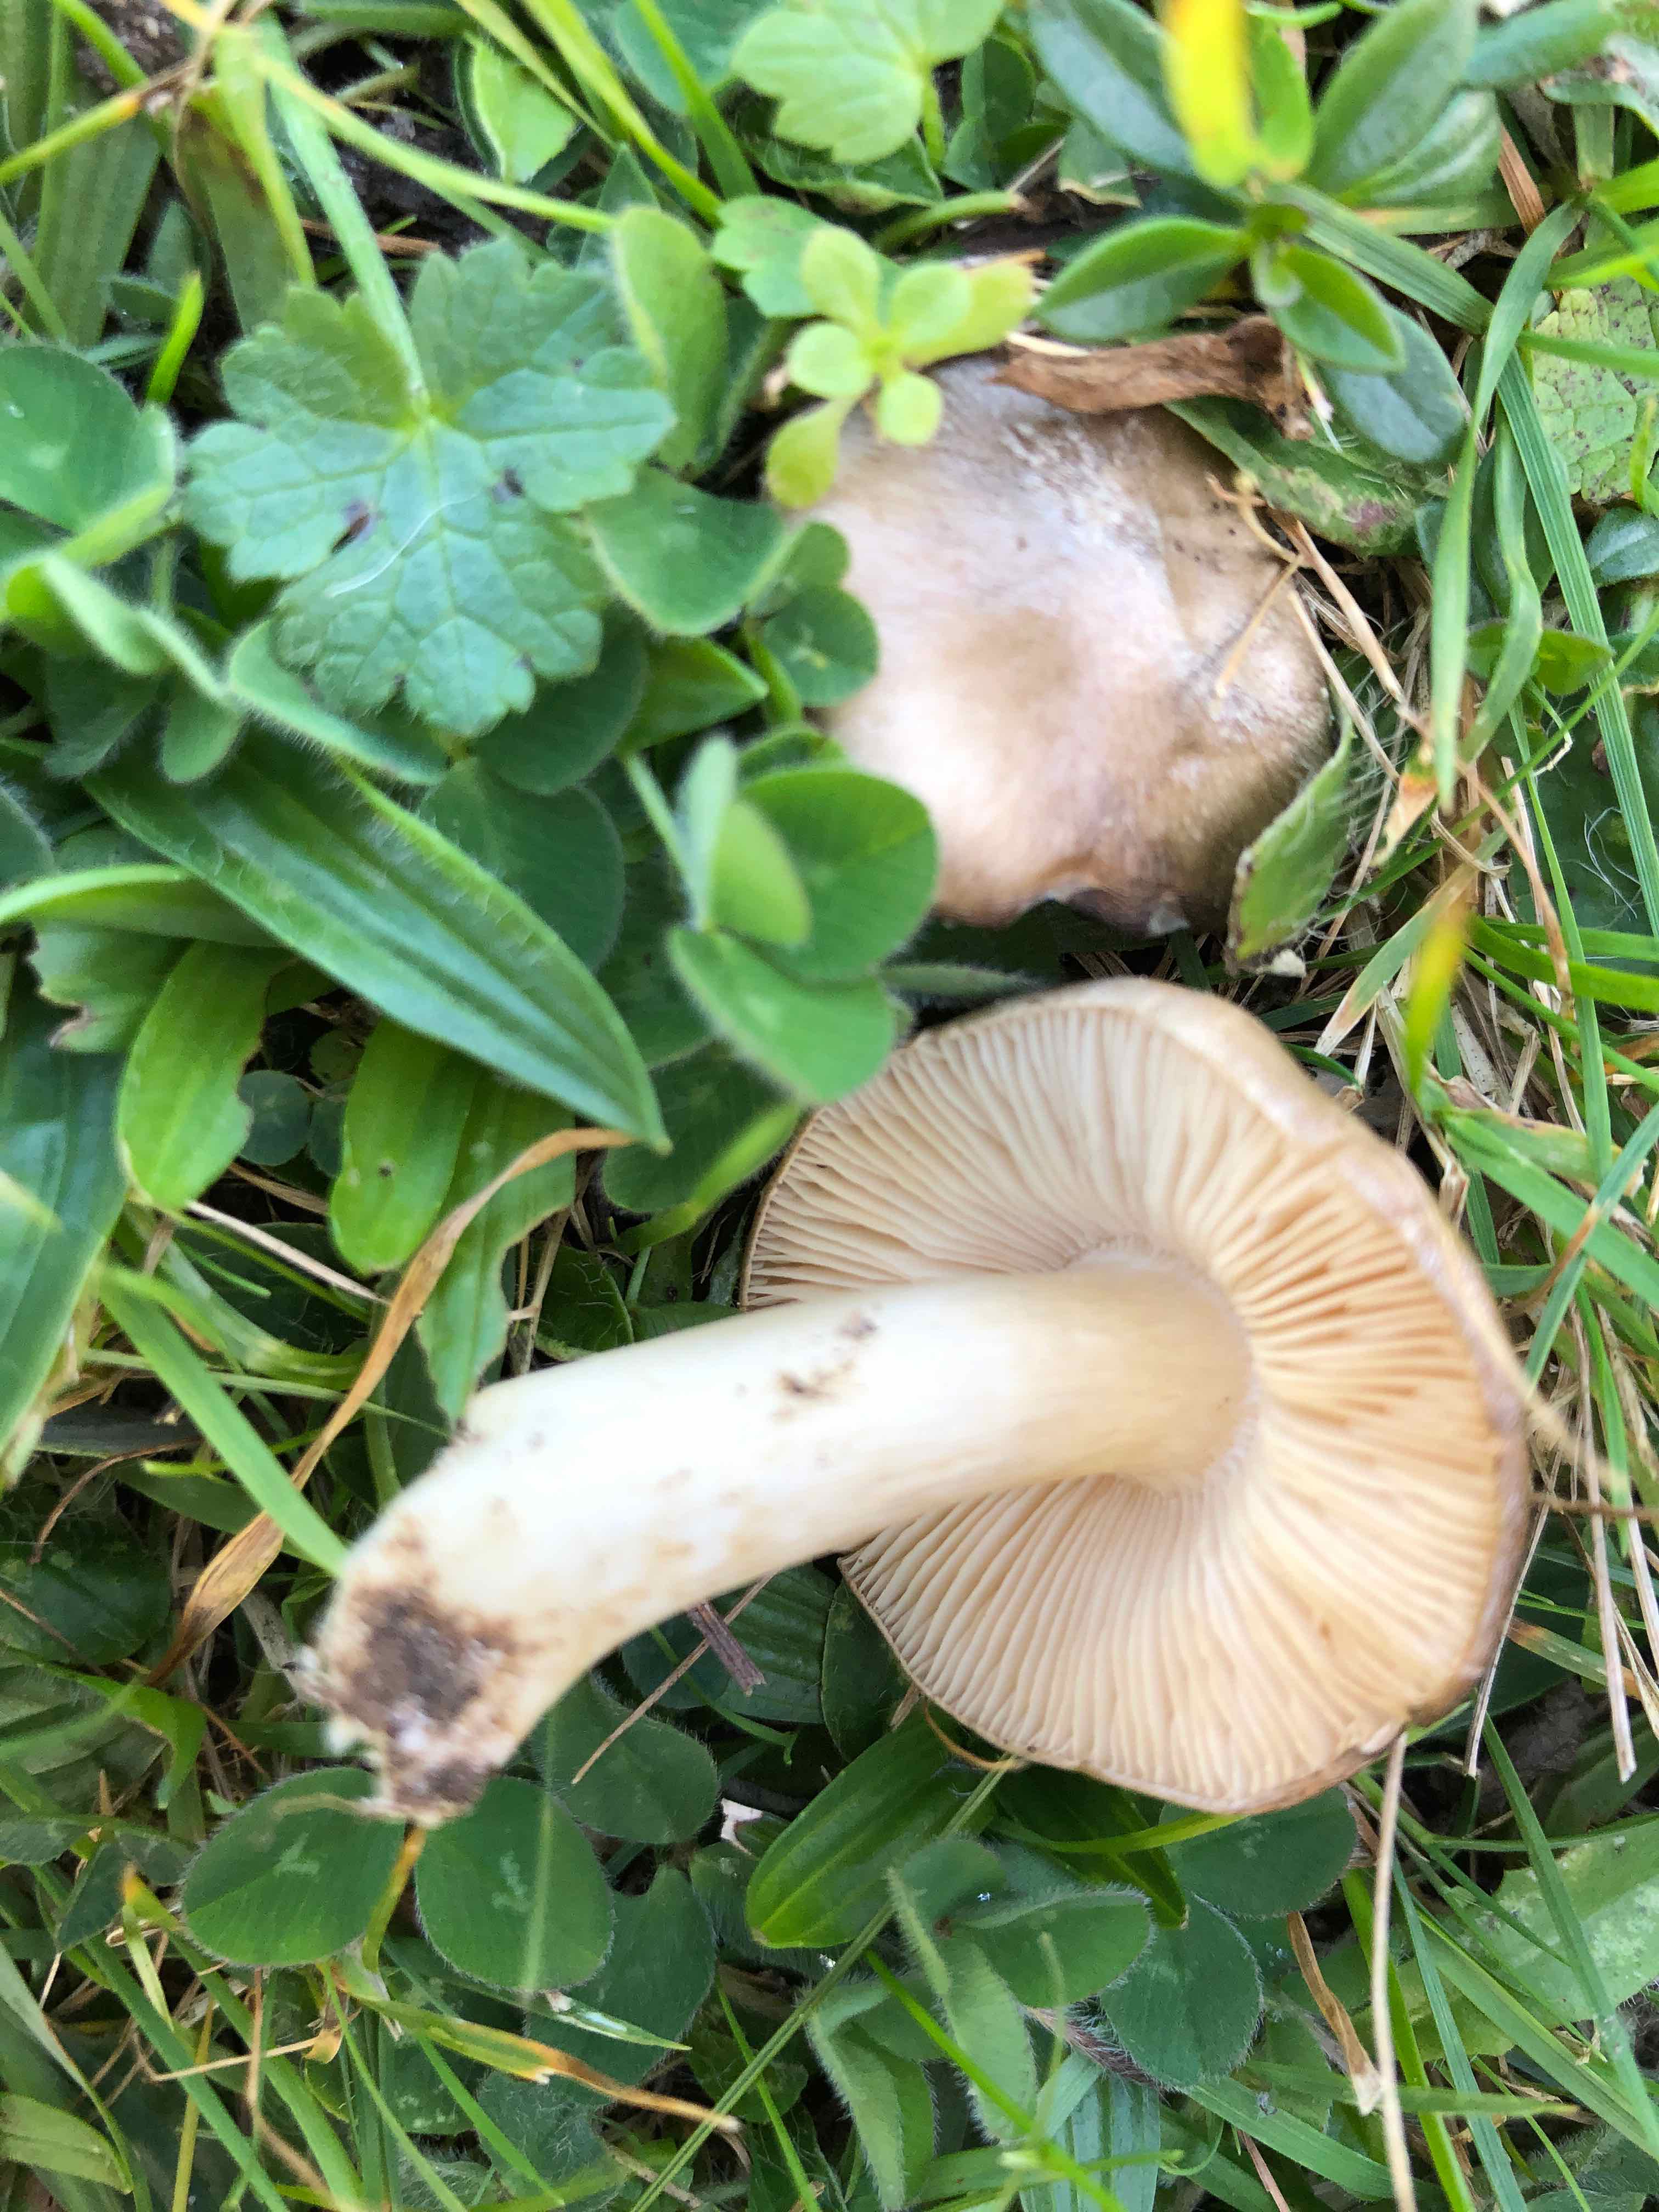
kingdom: Fungi
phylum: Basidiomycota
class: Agaricomycetes
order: Agaricales
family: Entolomataceae
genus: Entoloma
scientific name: Entoloma prunuloides
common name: mel-rødblad
